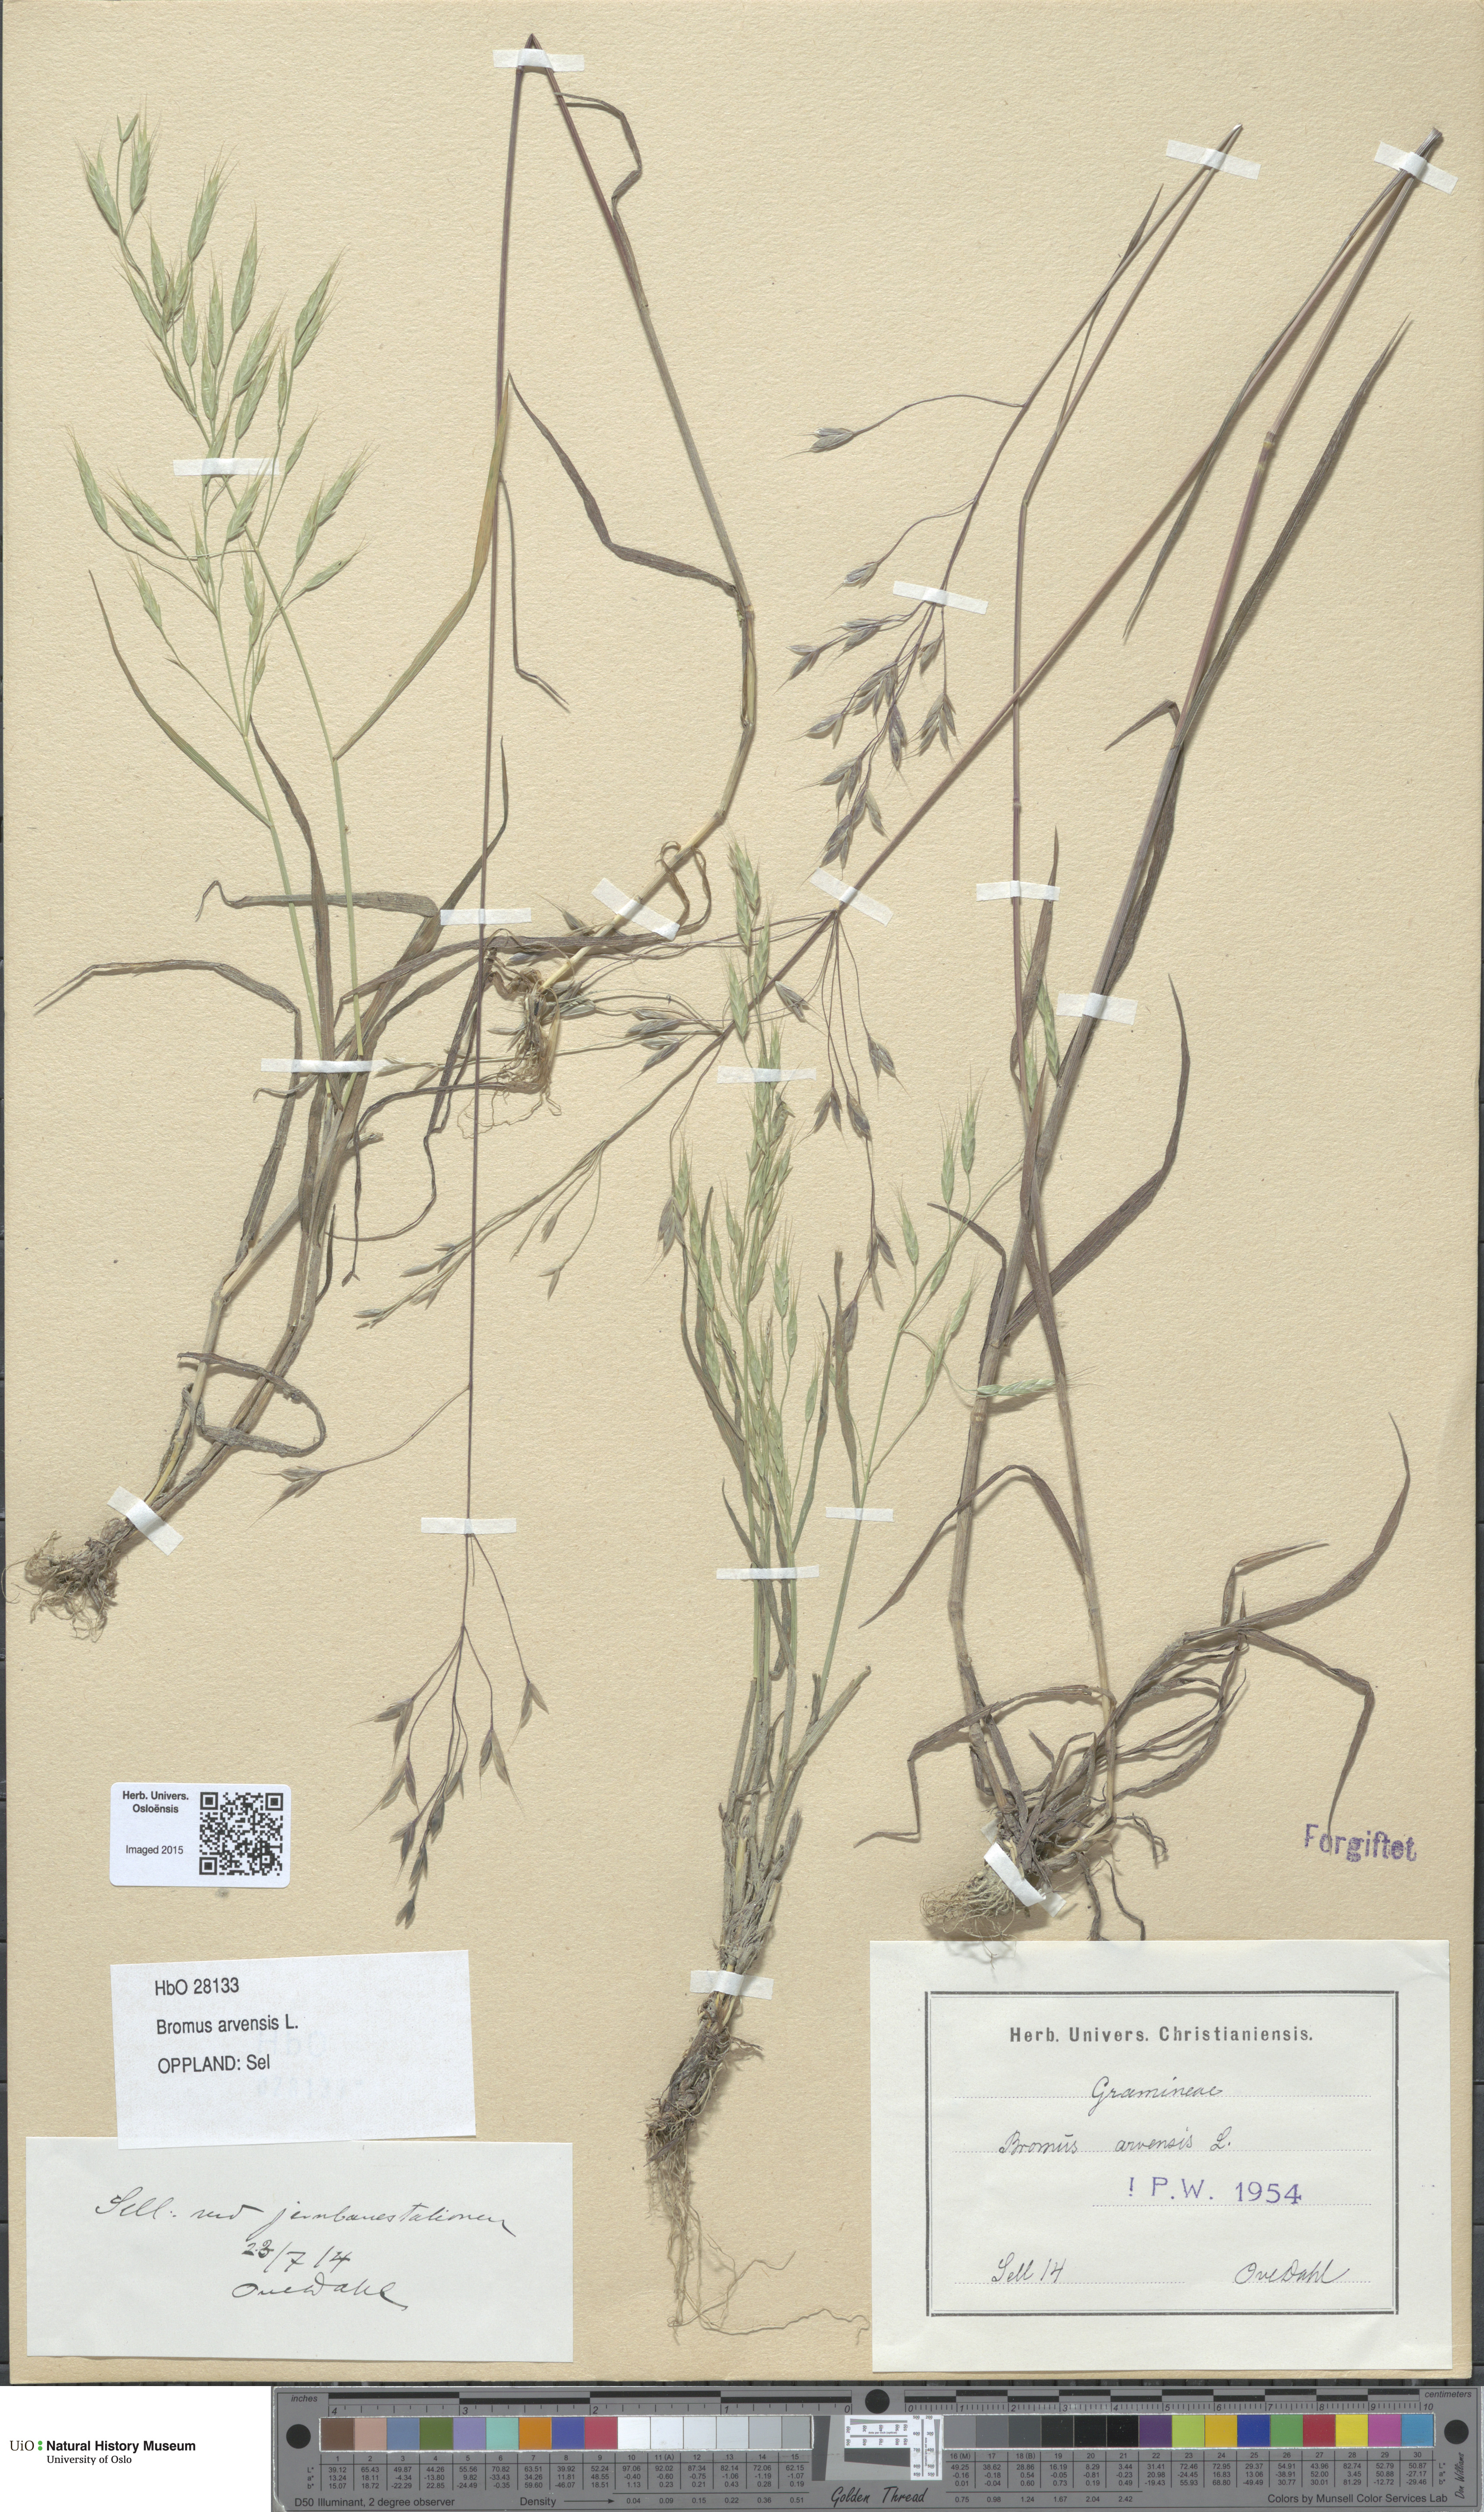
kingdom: Plantae
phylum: Tracheophyta
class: Liliopsida
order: Poales
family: Poaceae
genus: Bromus
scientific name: Bromus arvensis
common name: Field brome
